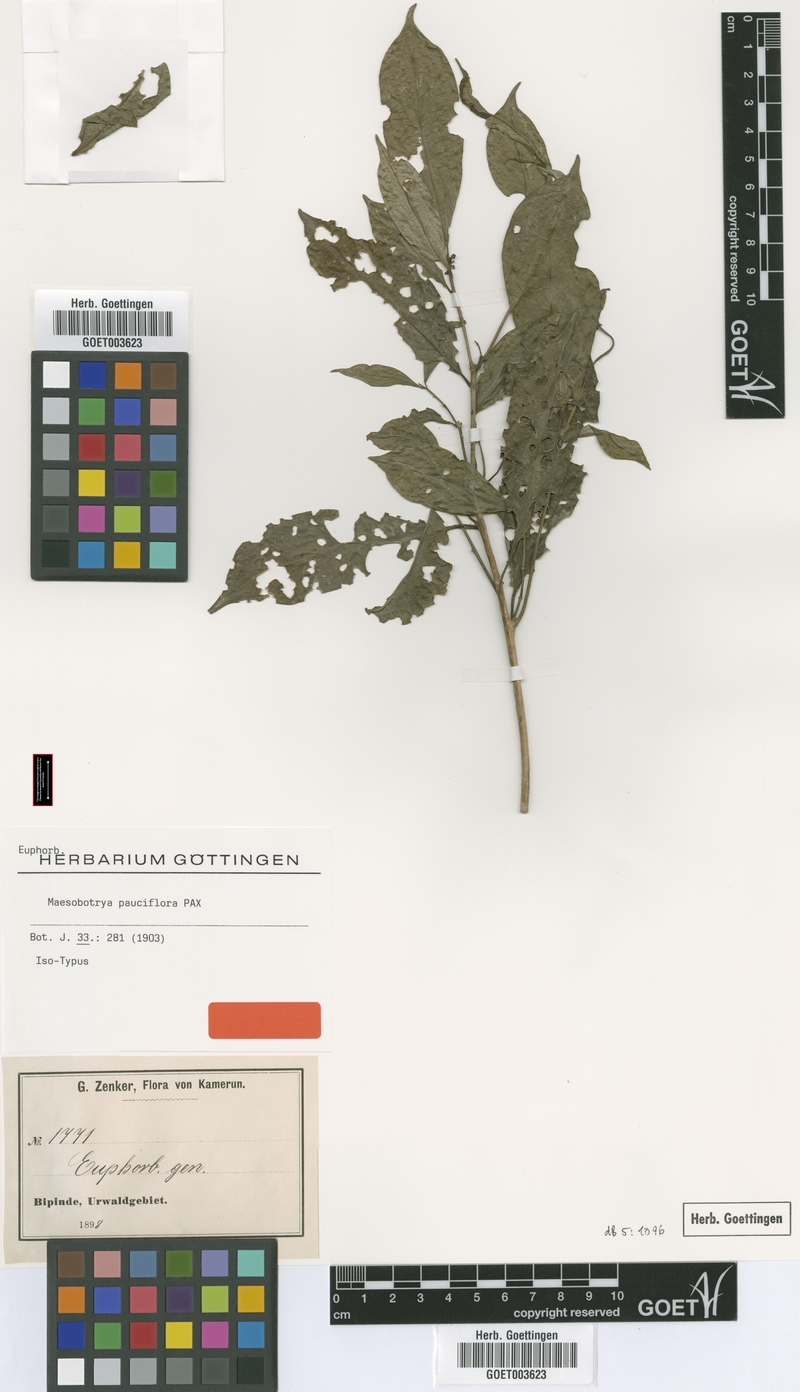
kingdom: Plantae
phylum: Tracheophyta
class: Magnoliopsida
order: Malpighiales
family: Phyllanthaceae
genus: Maesobotrya
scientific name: Maesobotrya pauciflora
